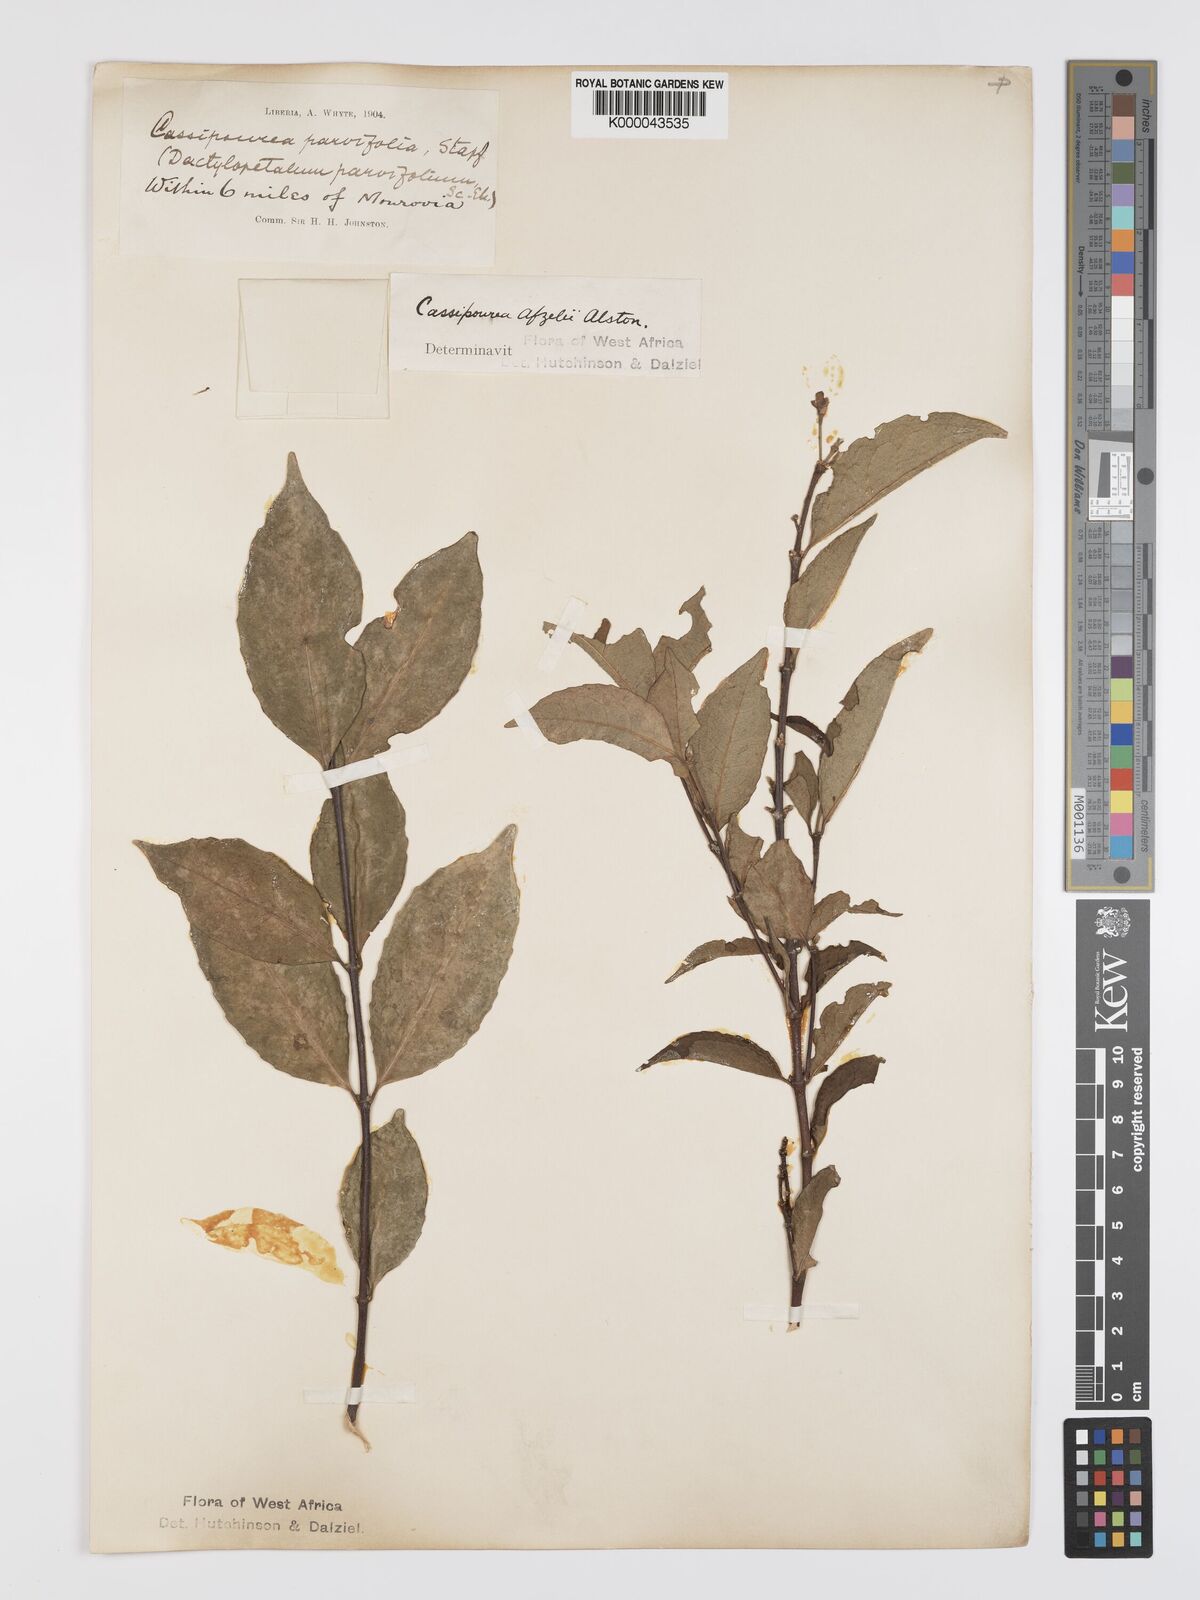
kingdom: Plantae
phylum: Tracheophyta
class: Magnoliopsida
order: Malpighiales
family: Rhizophoraceae
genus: Cassipourea
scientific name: Cassipourea afzelii
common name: Elephant tusk tree
